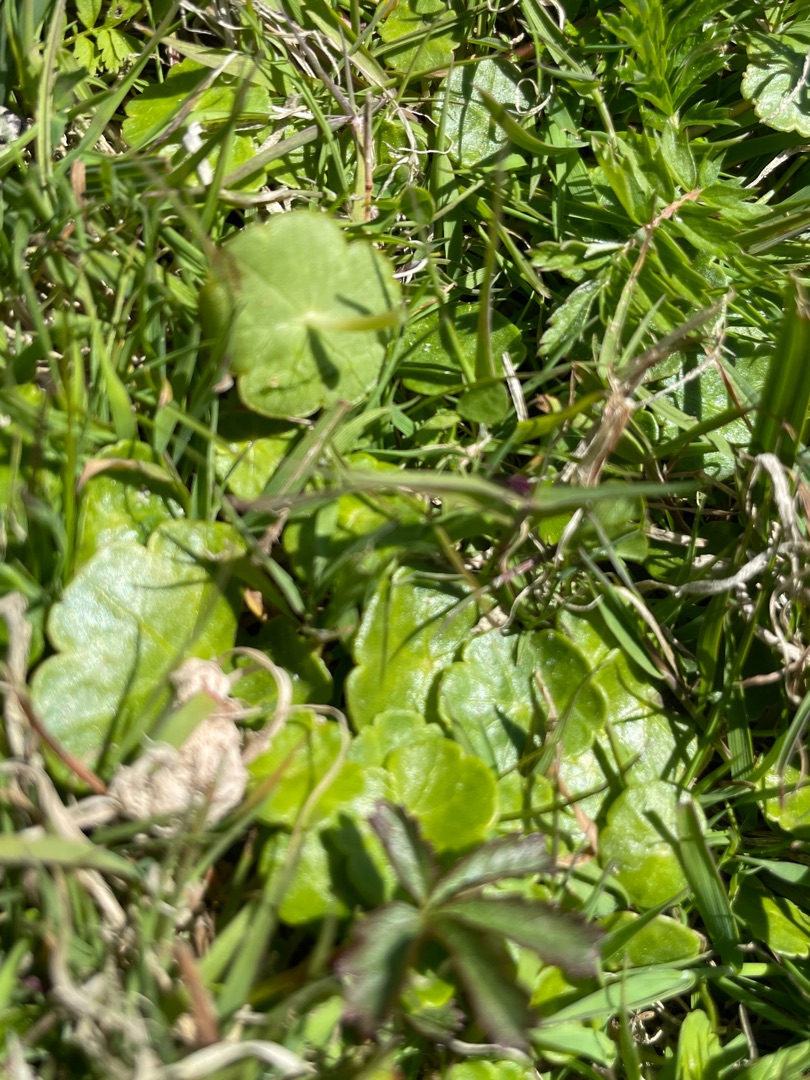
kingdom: Plantae
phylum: Tracheophyta
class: Magnoliopsida
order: Apiales
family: Araliaceae
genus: Hydrocotyle
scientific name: Hydrocotyle vulgaris
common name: Vandnavle
